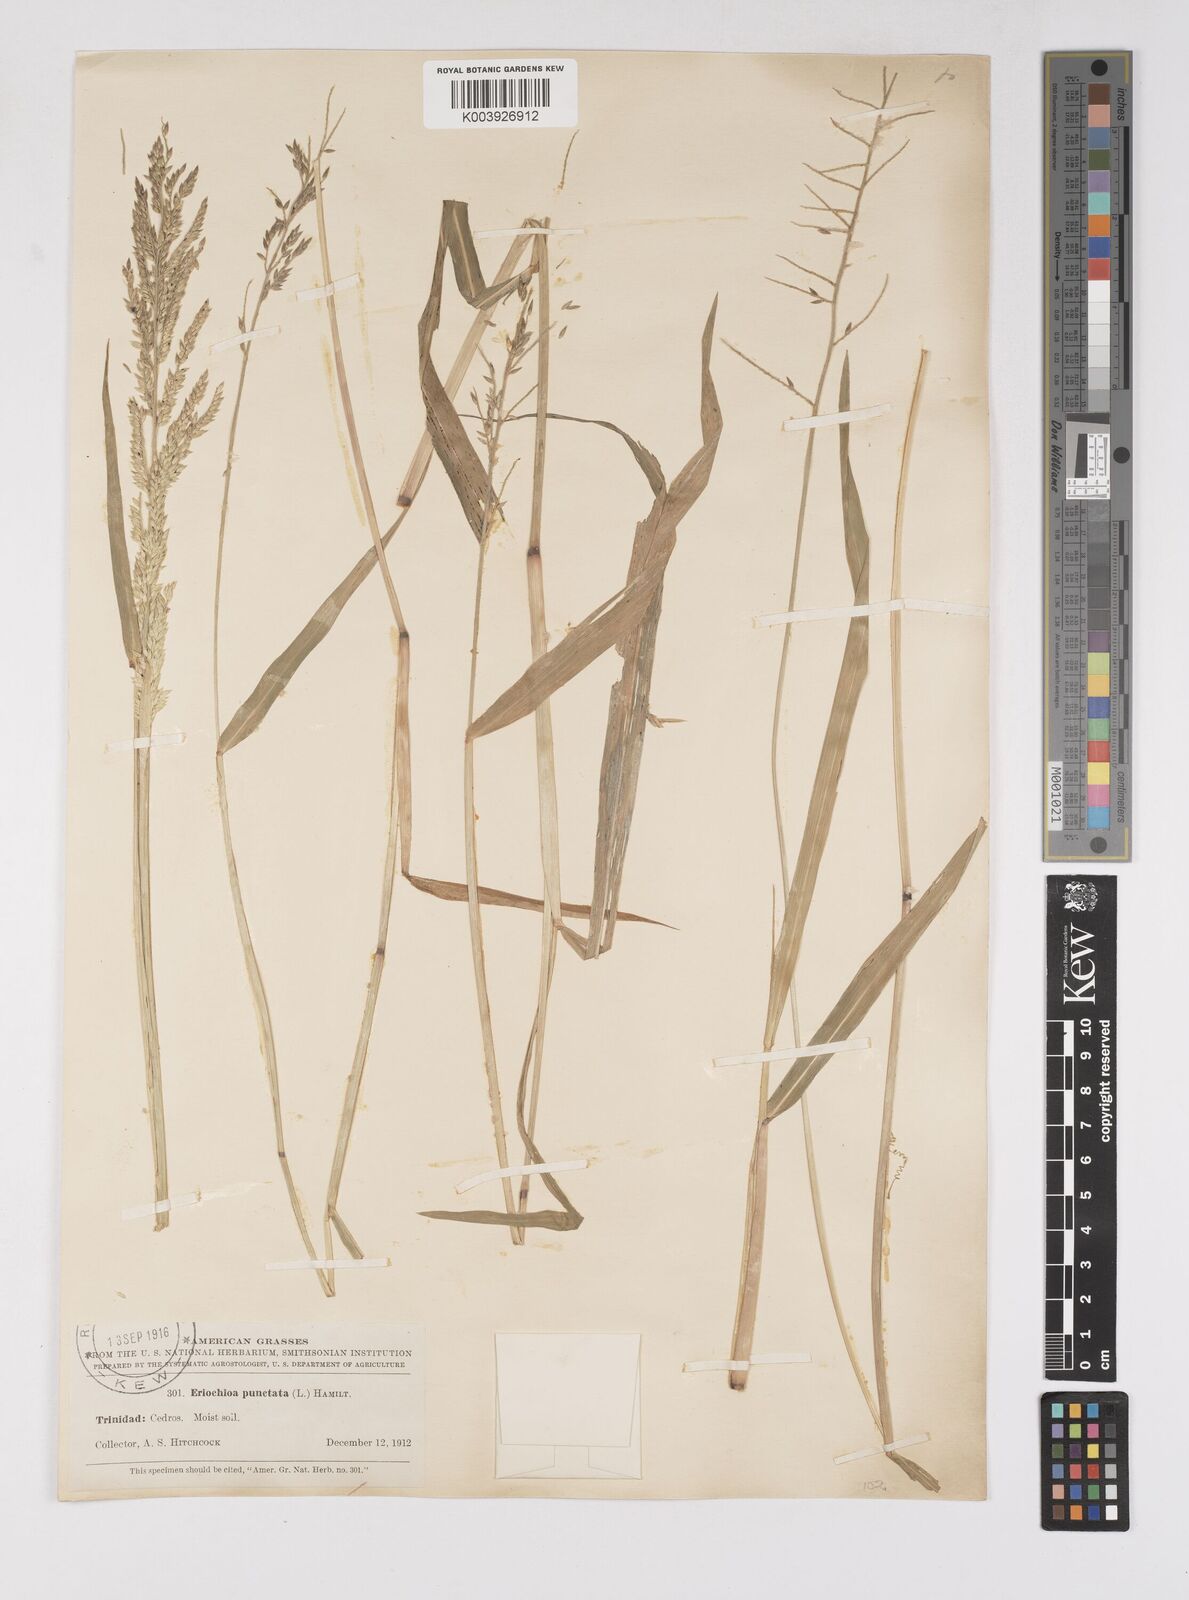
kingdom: Plantae
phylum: Tracheophyta
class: Liliopsida
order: Poales
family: Poaceae
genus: Eriochloa
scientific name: Eriochloa punctata
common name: Louisiana cupgrass
